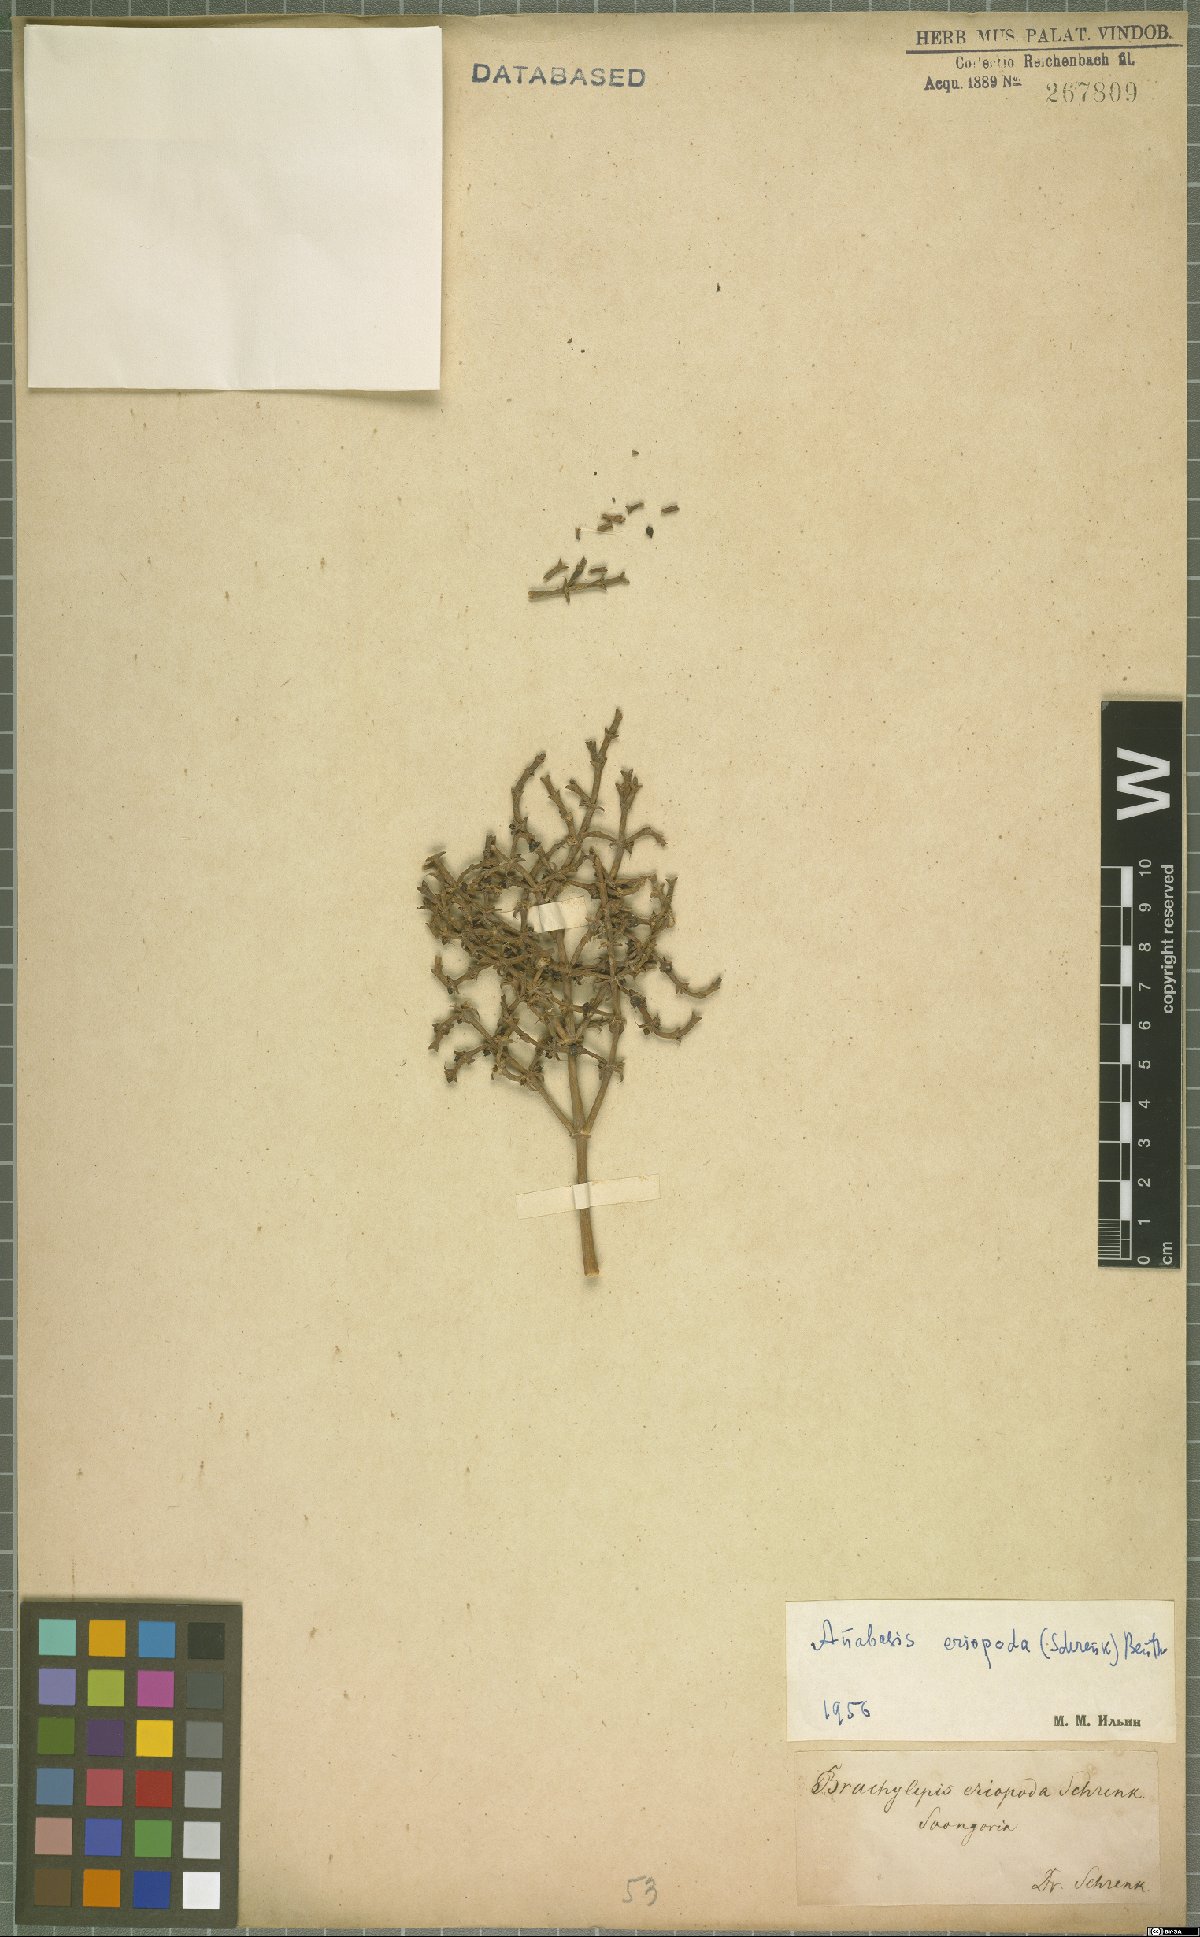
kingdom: Plantae
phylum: Tracheophyta
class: Magnoliopsida
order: Caryophyllales
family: Amaranthaceae
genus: Anabasis
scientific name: Anabasis eriopoda
